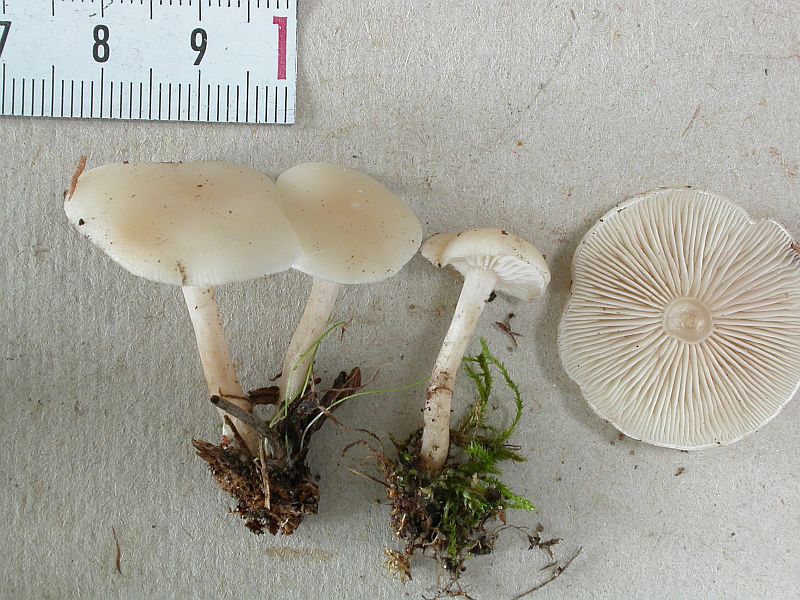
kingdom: Fungi
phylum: Basidiomycota
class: Agaricomycetes
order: Agaricales
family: Tricholomataceae
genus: Clitocybe
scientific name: Clitocybe agrestis
